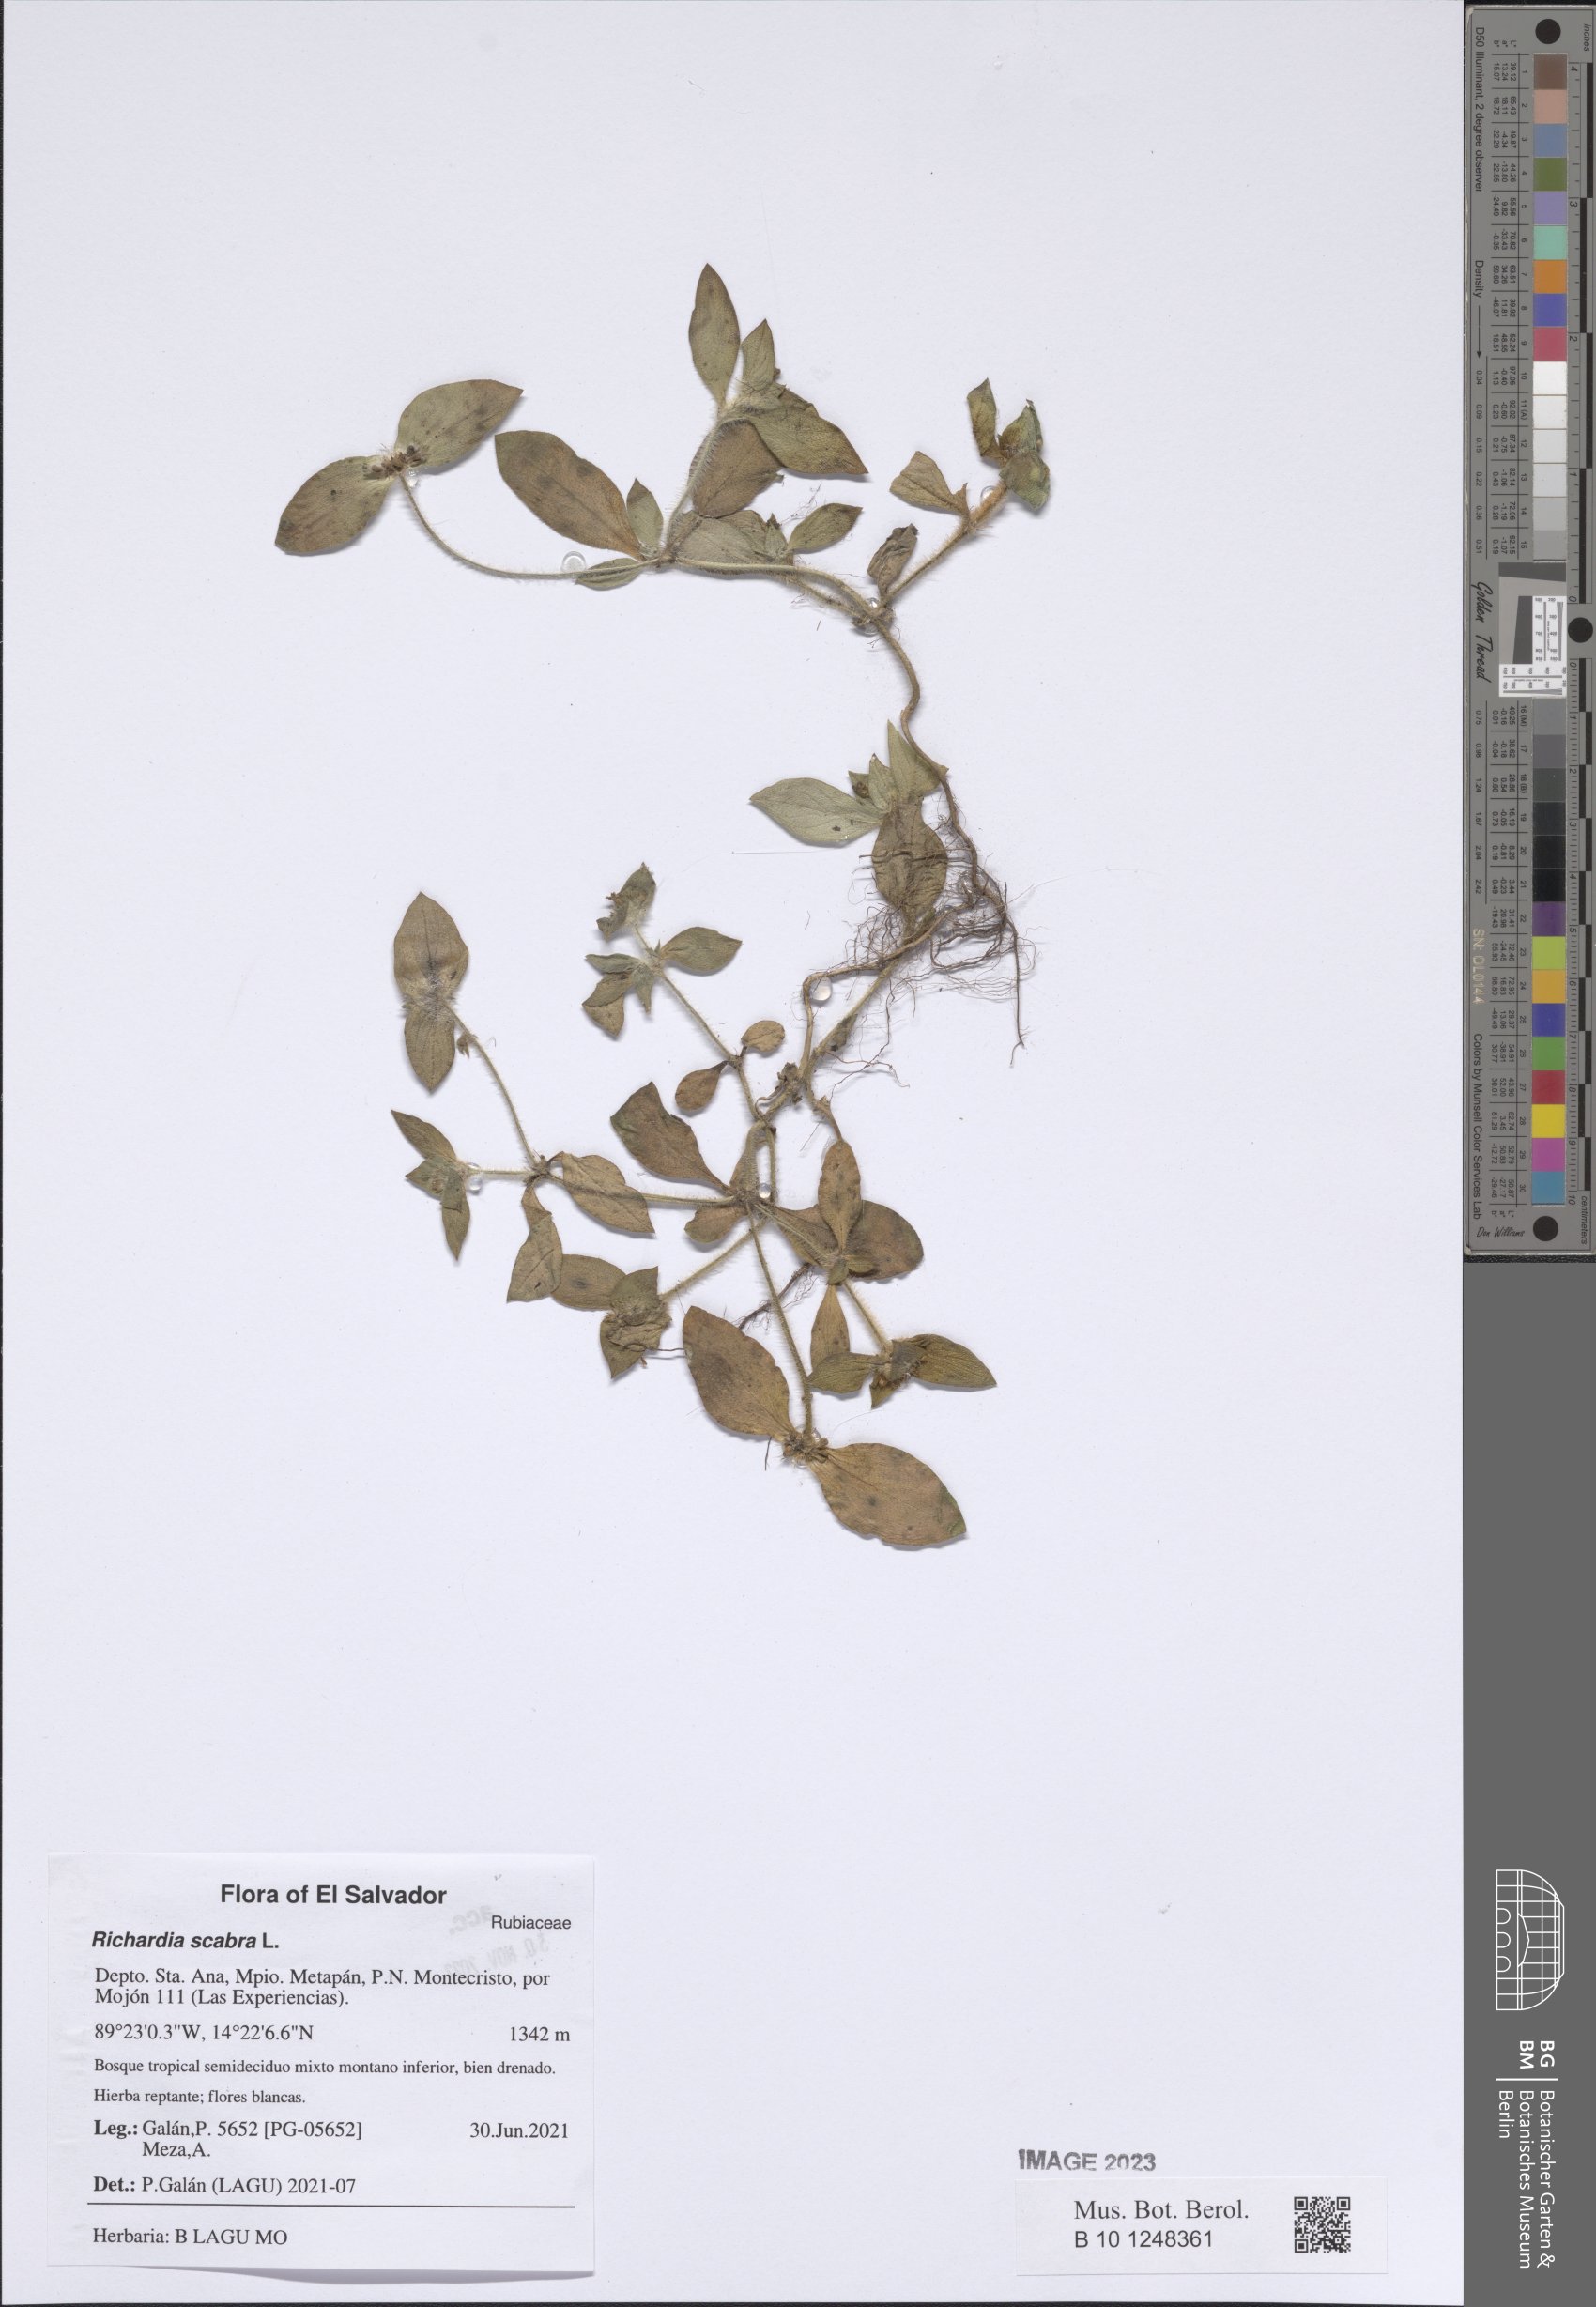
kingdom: Plantae
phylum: Tracheophyta
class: Magnoliopsida
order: Gentianales
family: Rubiaceae
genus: Richardia
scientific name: Richardia scabra
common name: Rough mexican clover
